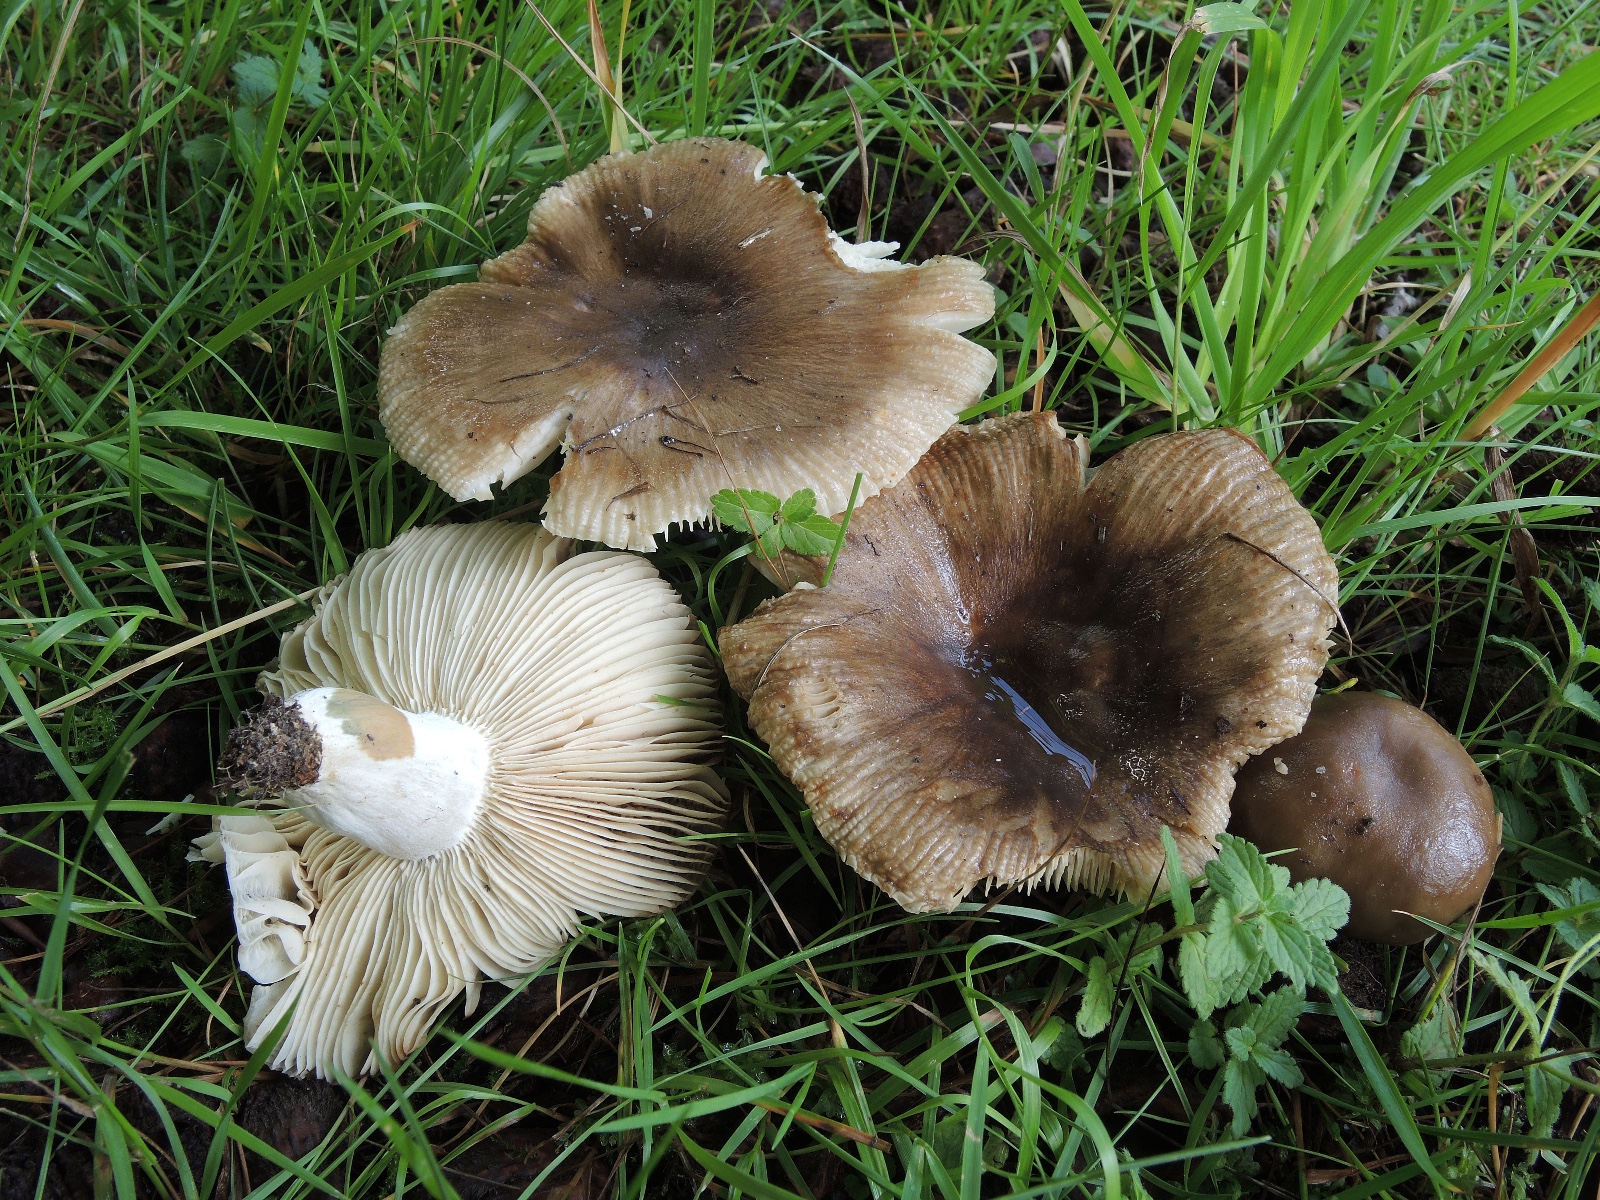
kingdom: Fungi
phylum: Basidiomycota
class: Agaricomycetes
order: Russulales
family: Russulaceae
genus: Russula
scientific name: Russula sororia
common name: brun kam-skørhat
